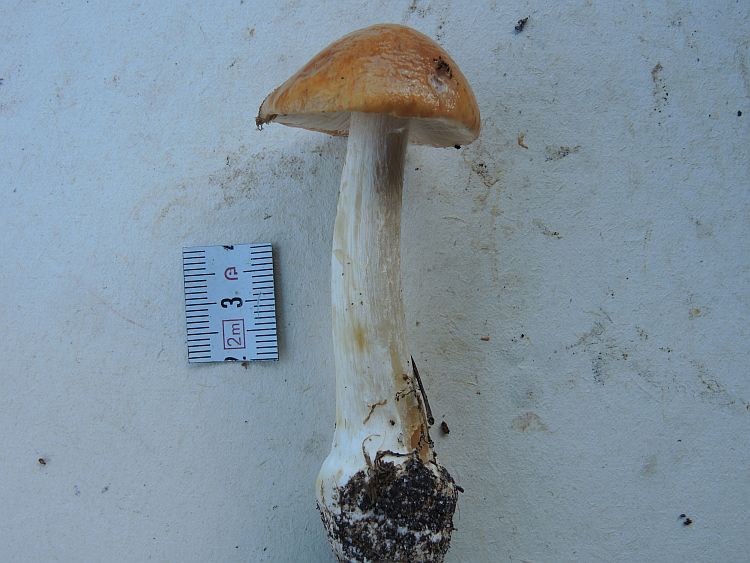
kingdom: Fungi
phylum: Basidiomycota
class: Agaricomycetes
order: Agaricales
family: Cortinariaceae
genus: Thaxterogaster
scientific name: Thaxterogaster multiformis
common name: honning-slørhat
